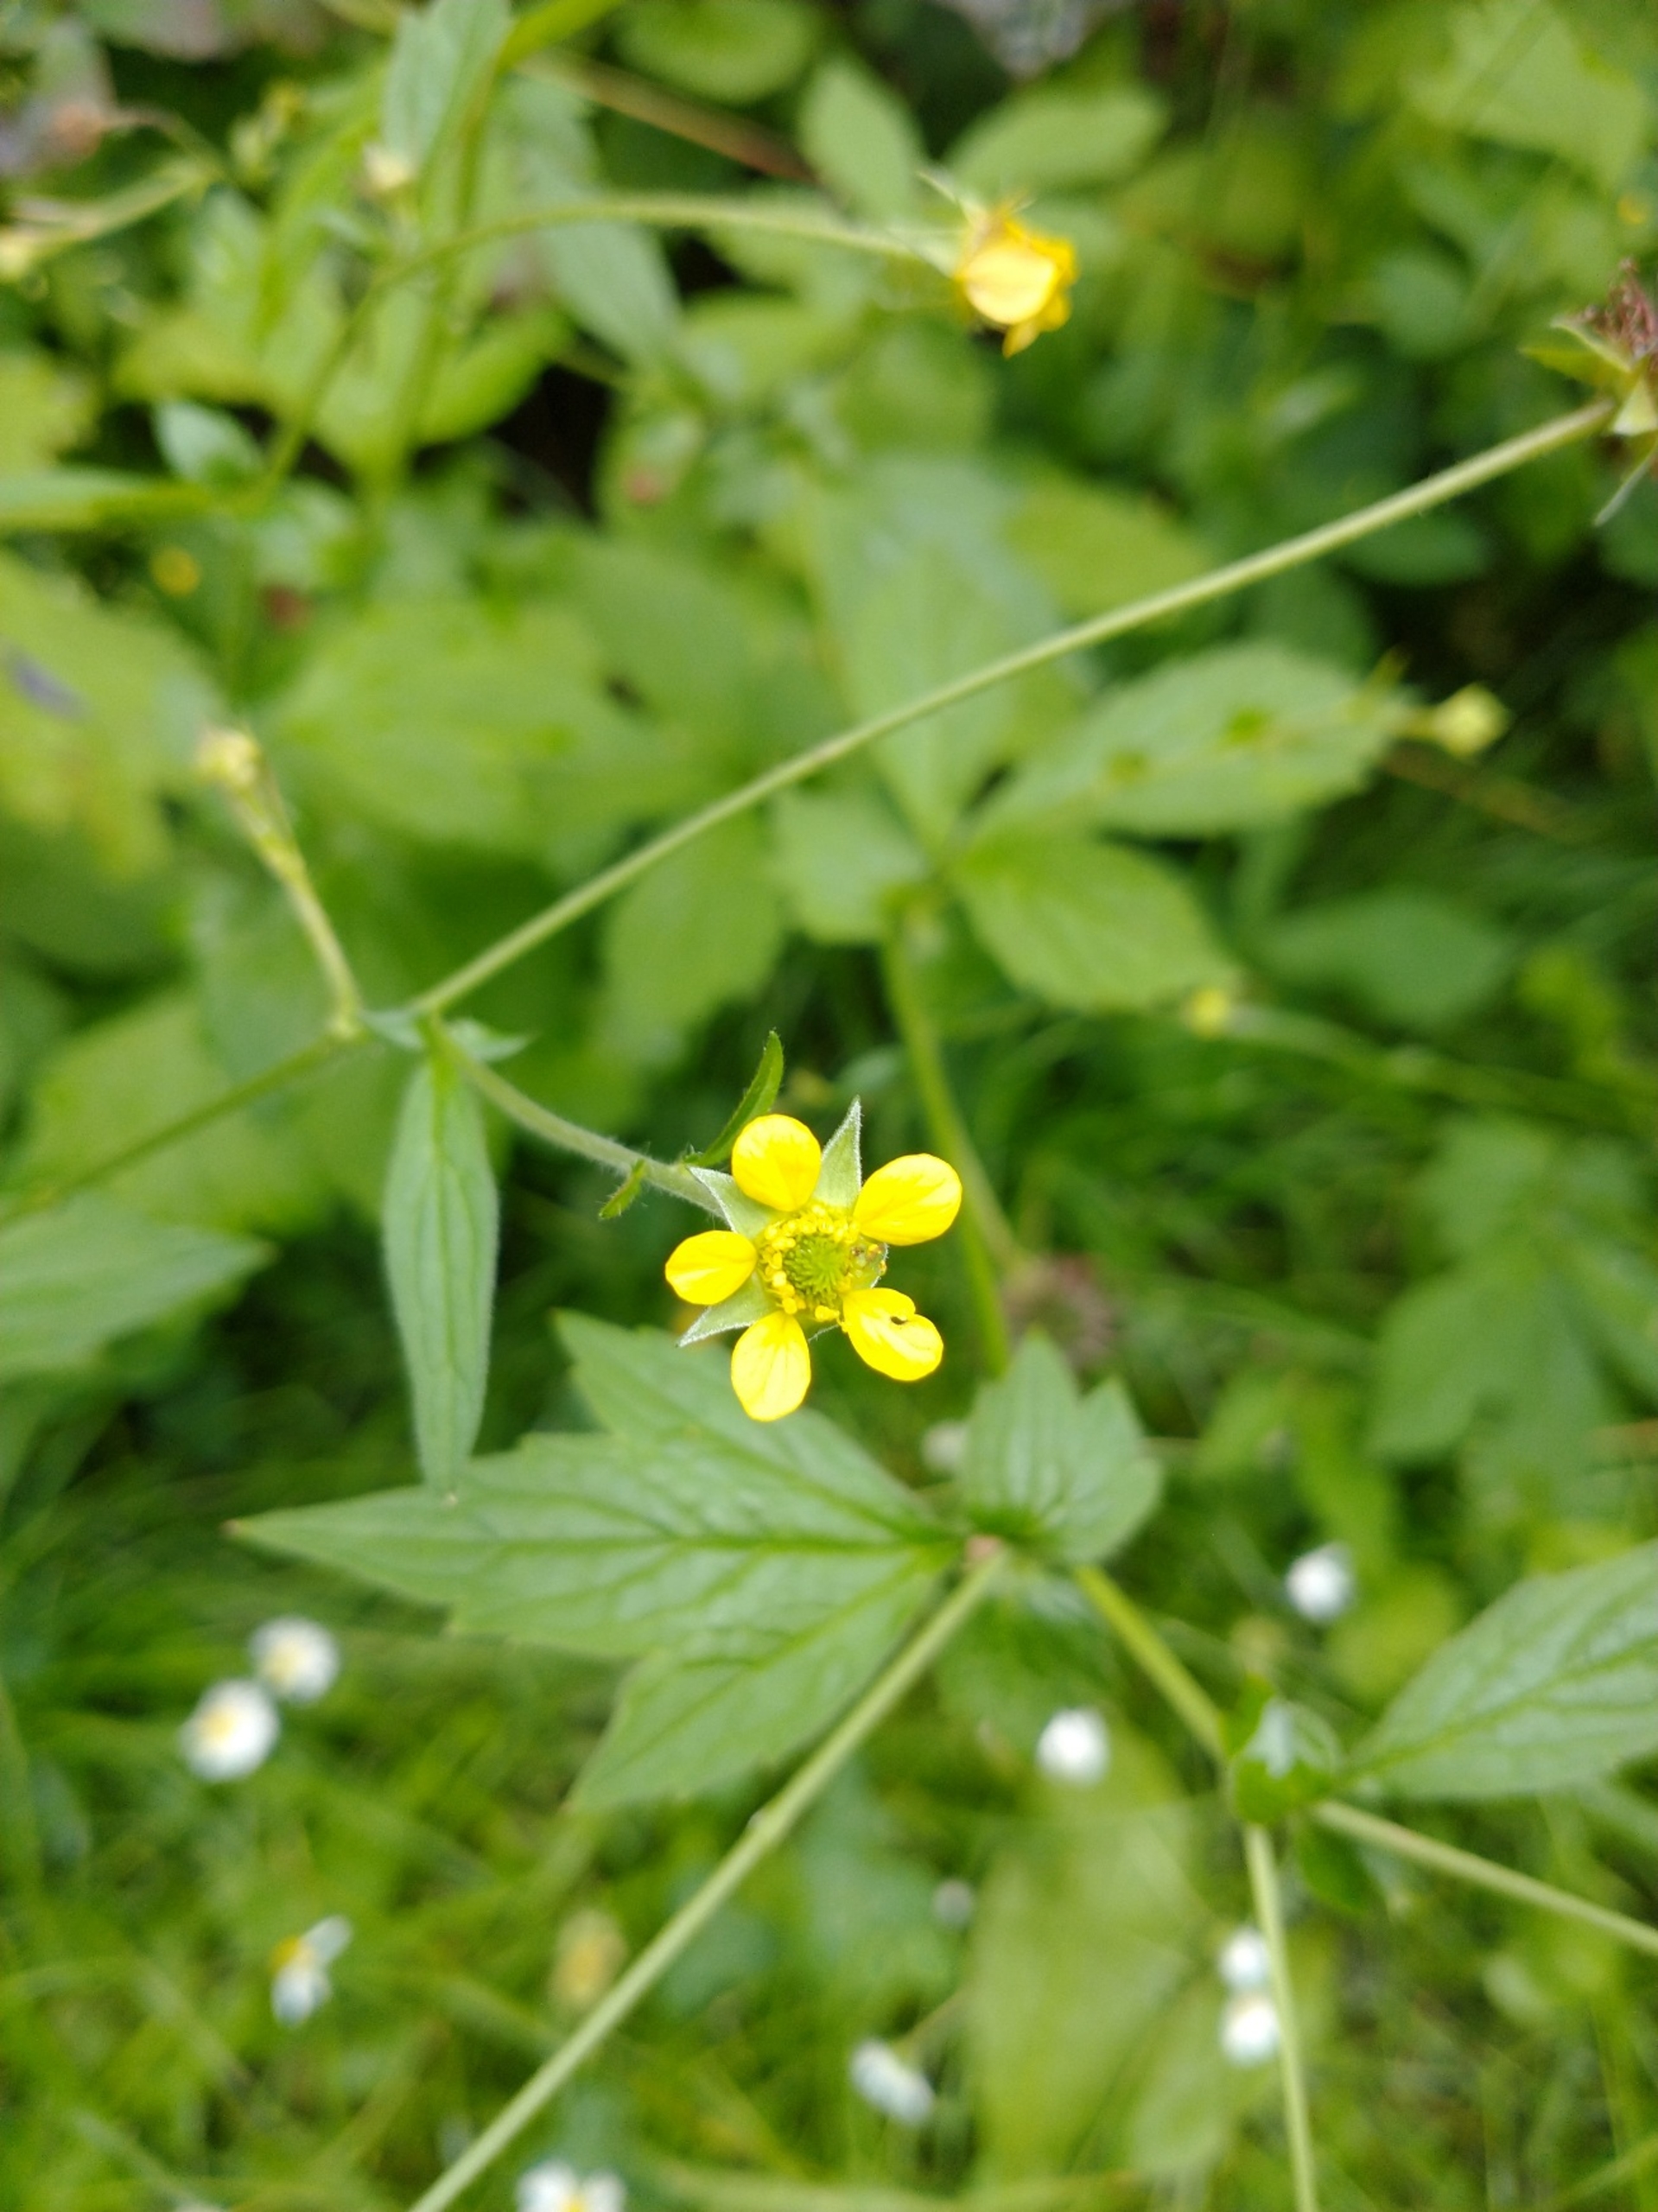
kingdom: Plantae
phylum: Tracheophyta
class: Magnoliopsida
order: Rosales
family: Rosaceae
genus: Geum
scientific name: Geum urbanum
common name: Feber-nellikerod
